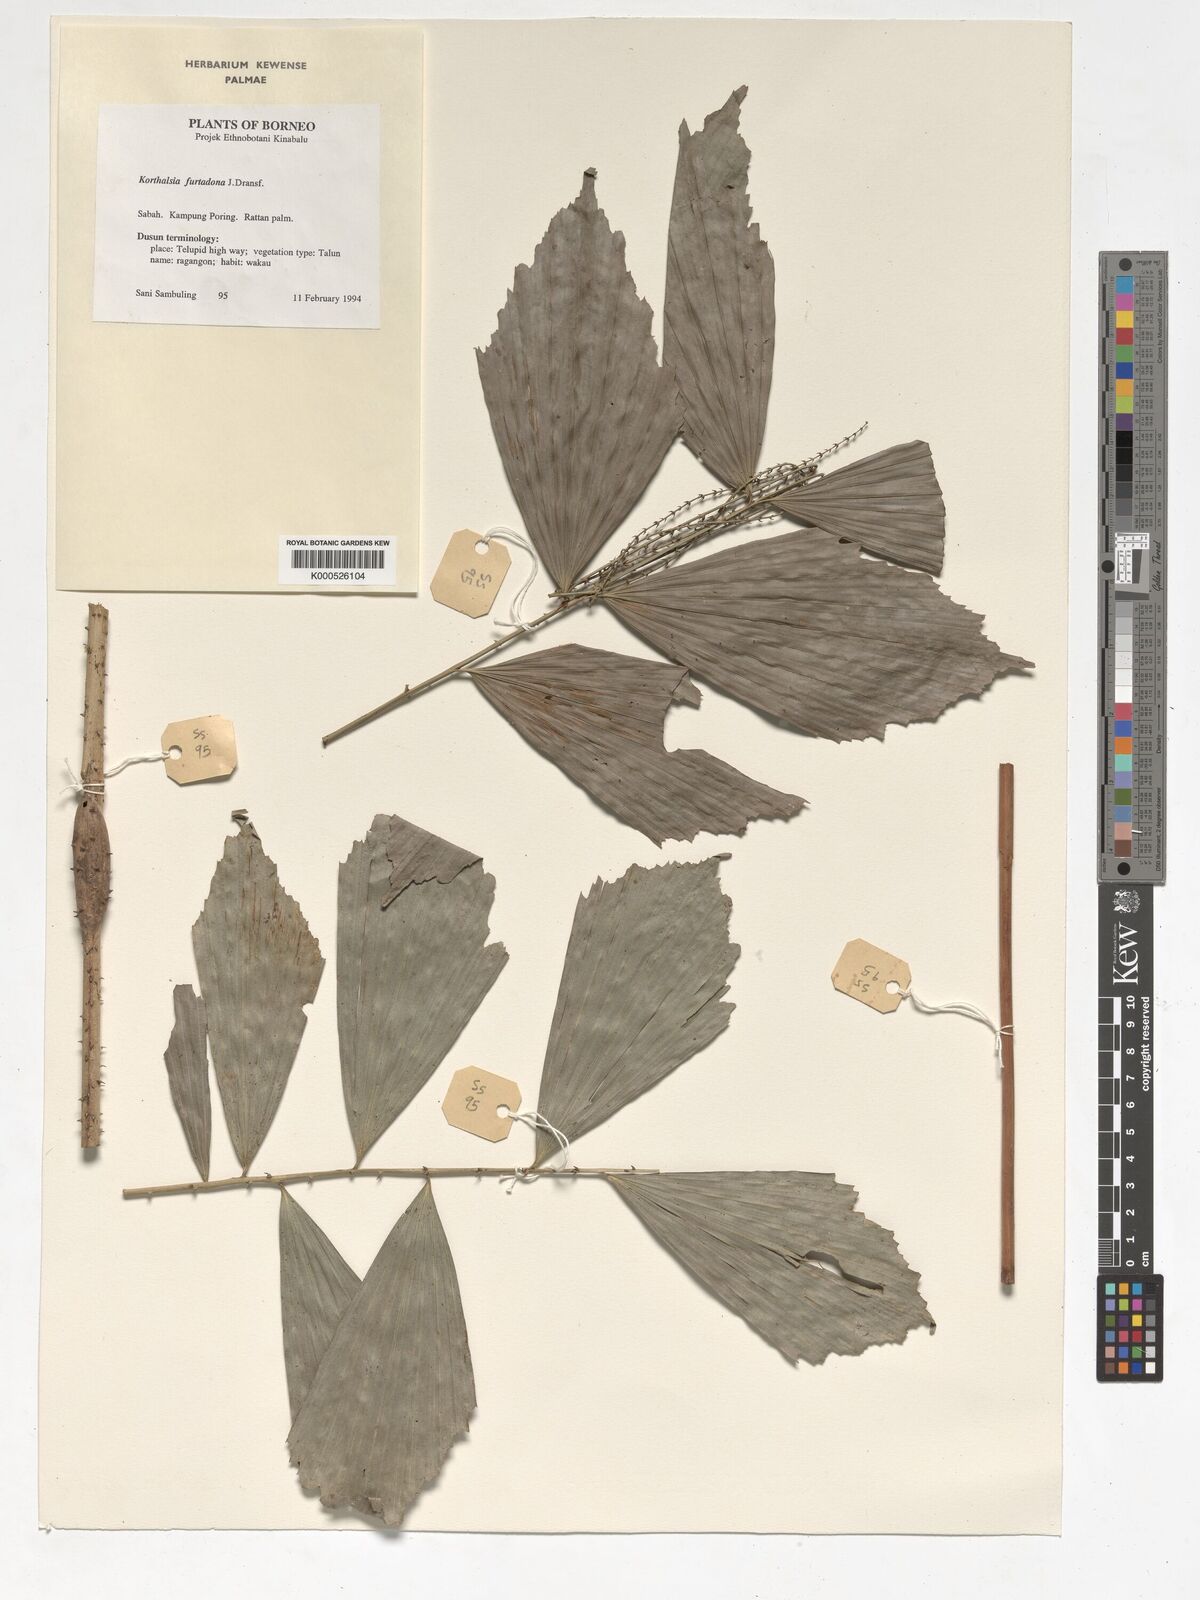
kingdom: Plantae
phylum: Tracheophyta
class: Liliopsida
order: Arecales
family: Arecaceae
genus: Korthalsia
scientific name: Korthalsia furtadoana
